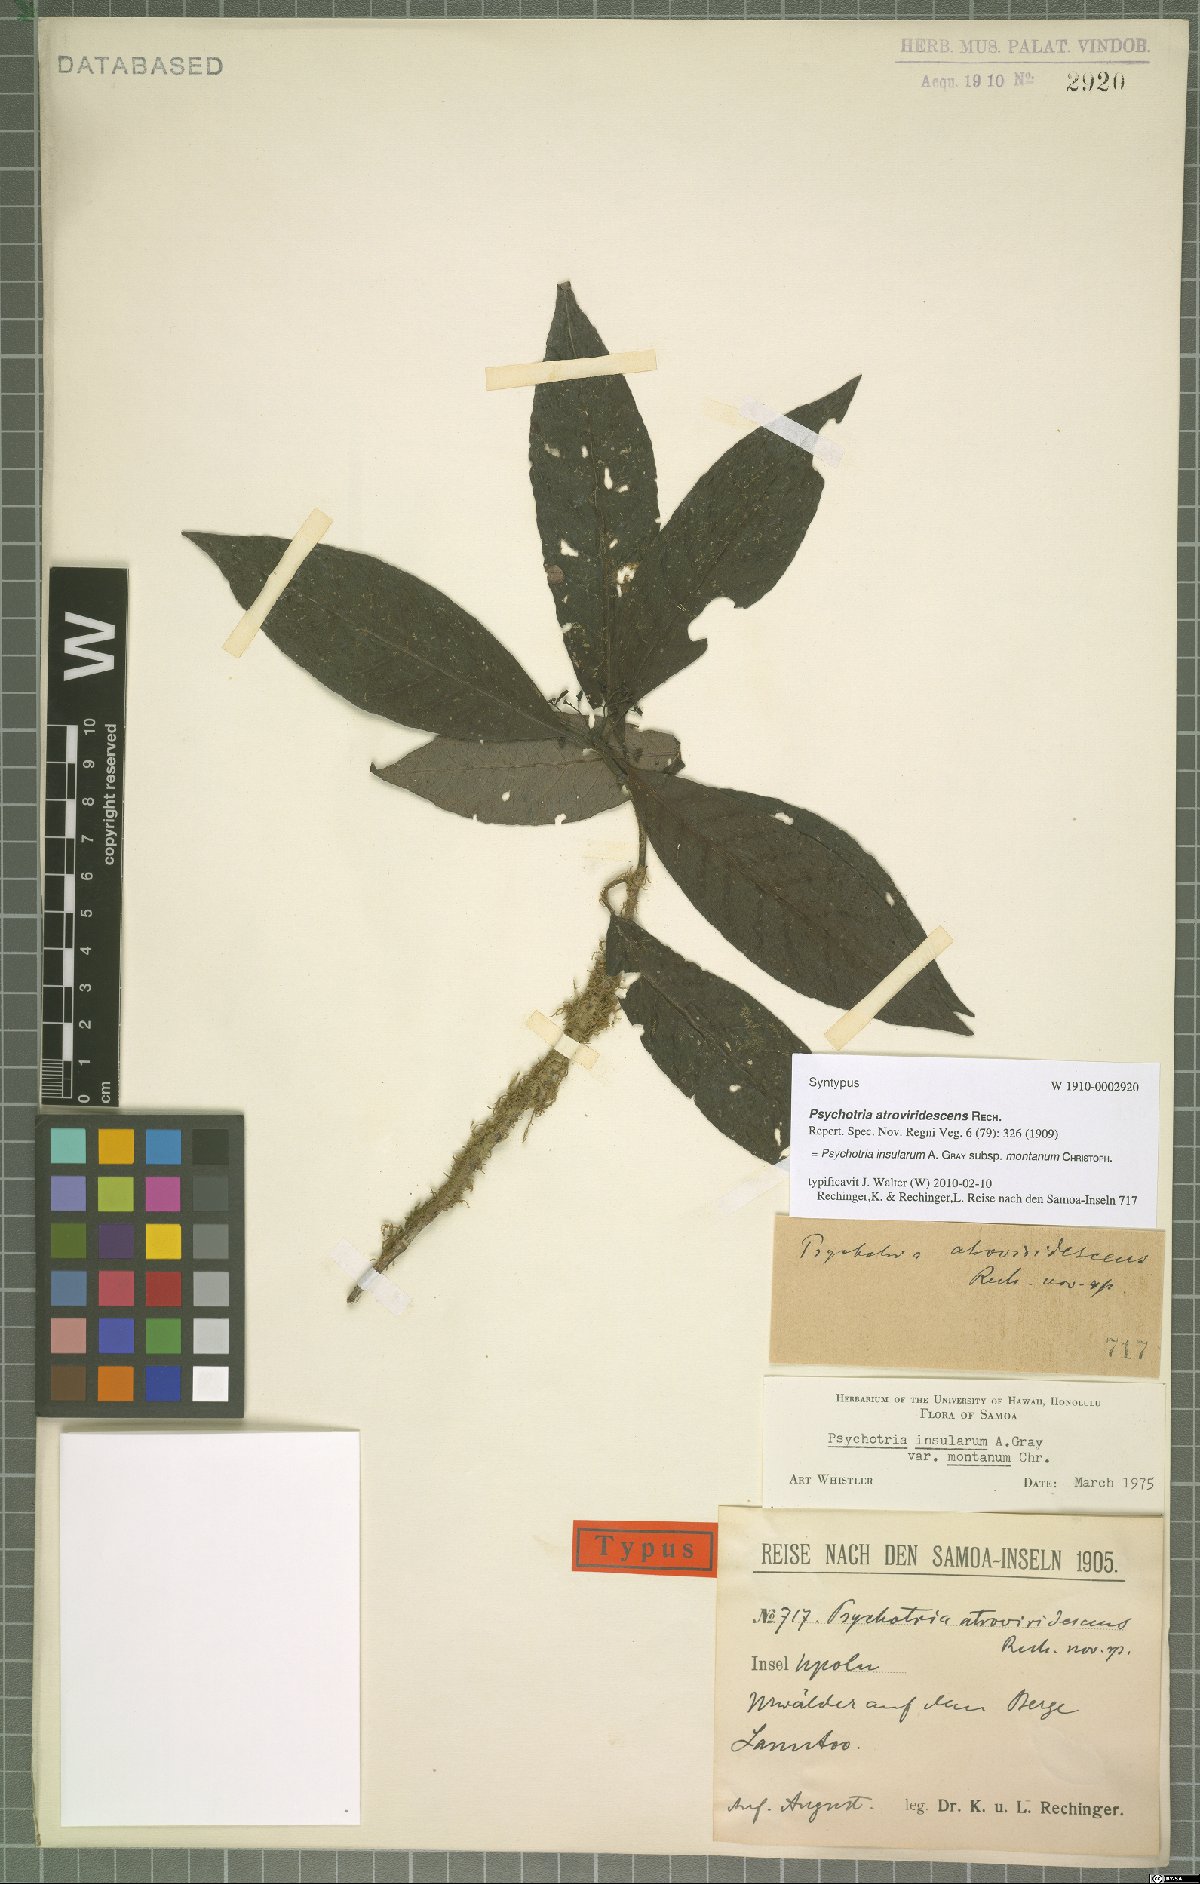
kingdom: Plantae
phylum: Tracheophyta
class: Magnoliopsida
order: Gentianales
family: Rubiaceae
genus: Psychotria
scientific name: Psychotria insularum
